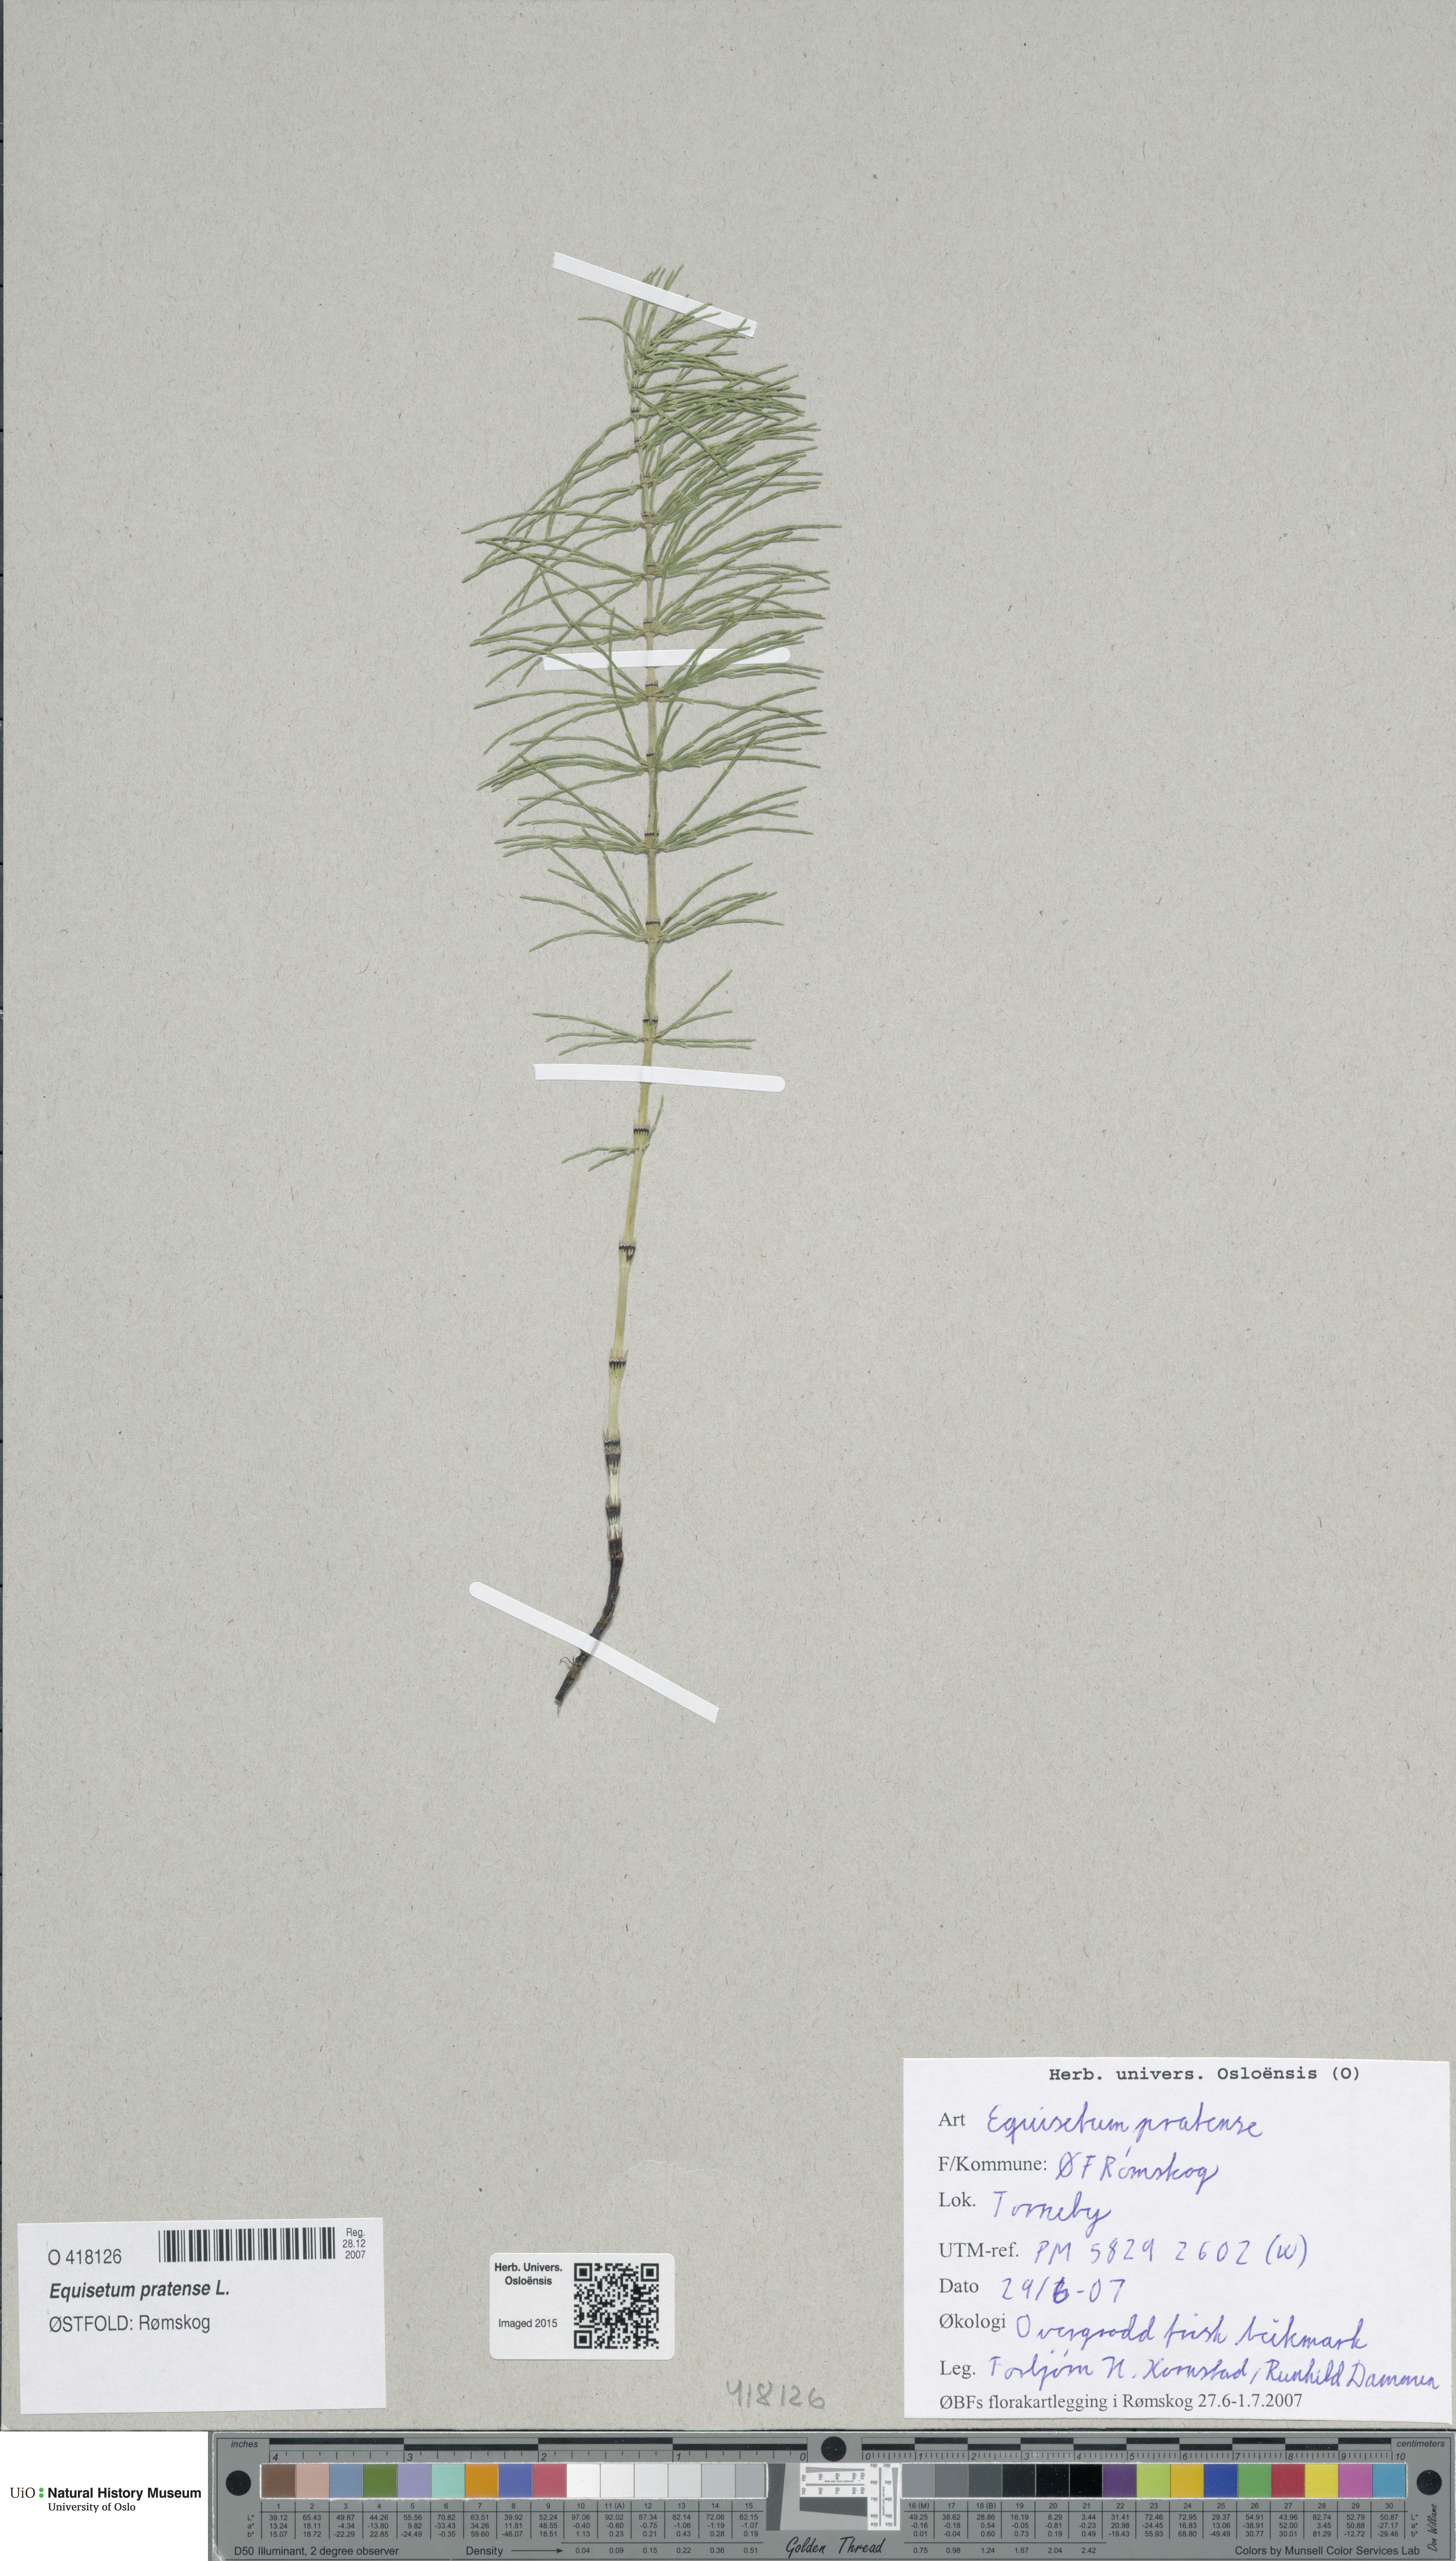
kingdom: Plantae
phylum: Tracheophyta
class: Polypodiopsida
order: Equisetales
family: Equisetaceae
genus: Equisetum
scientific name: Equisetum pratense
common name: Meadow horsetail
